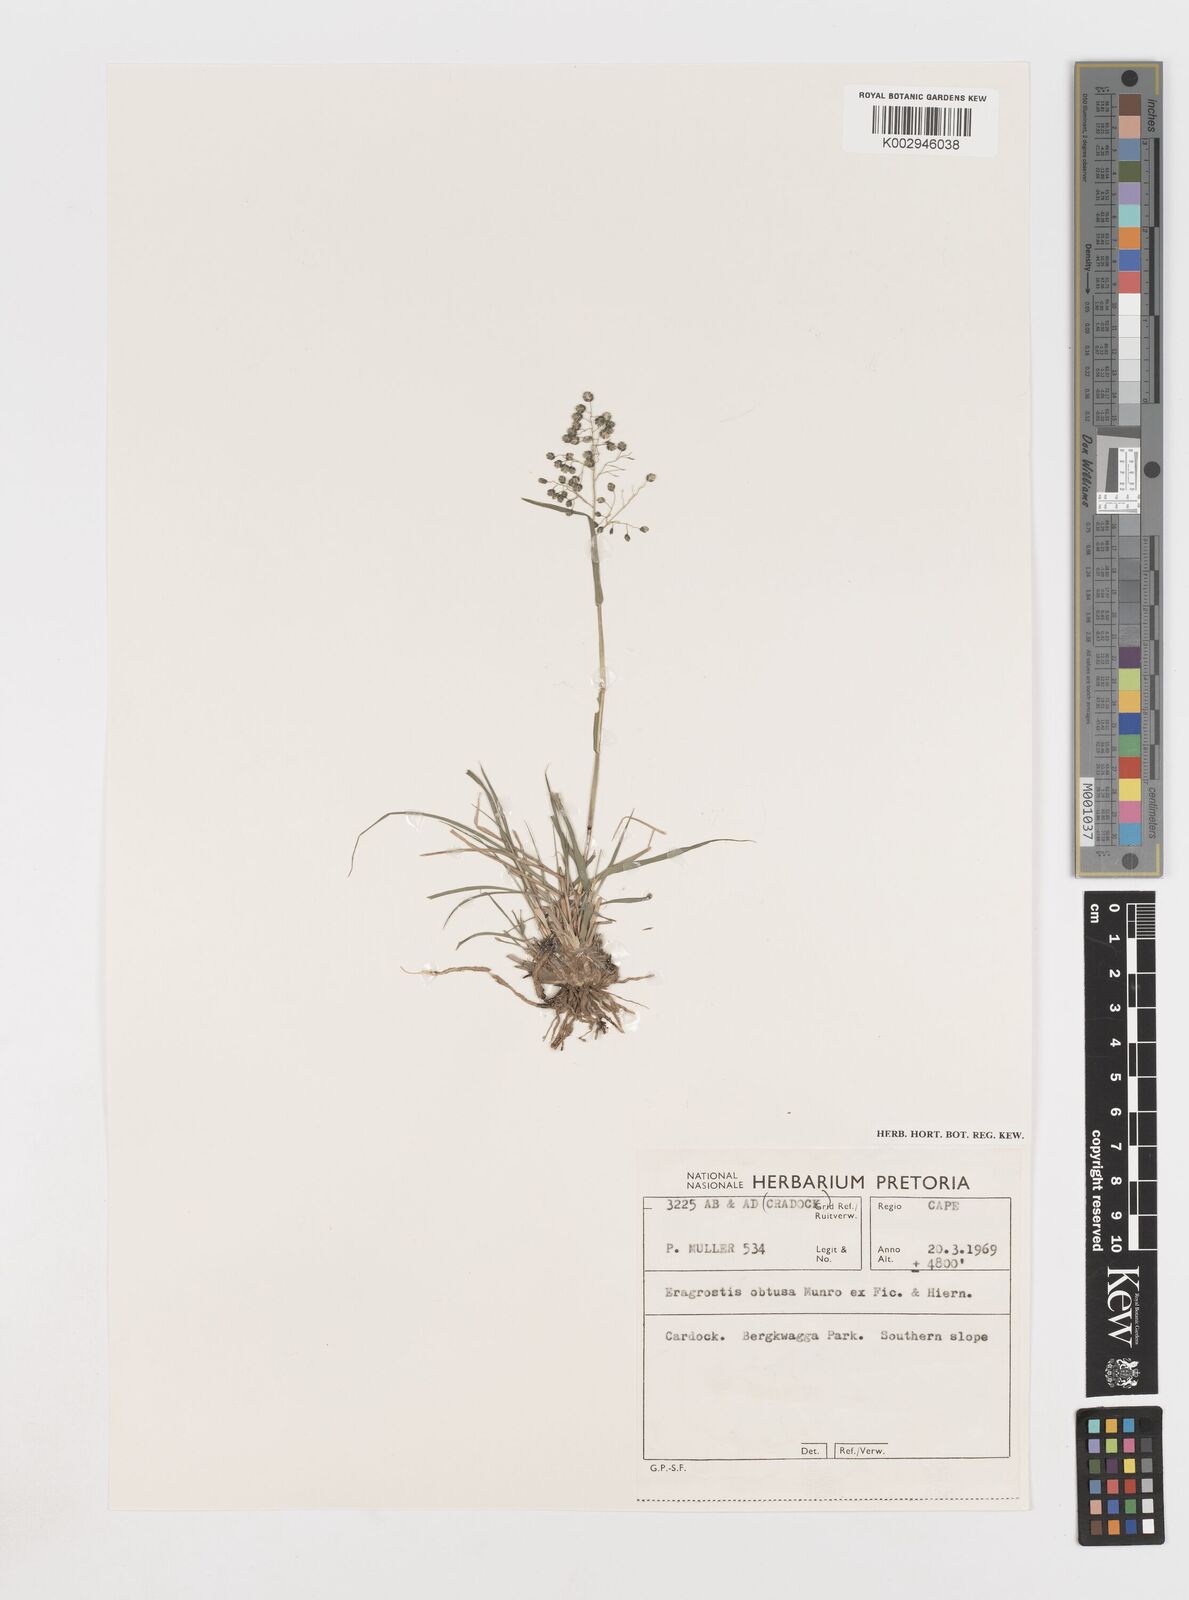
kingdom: Plantae
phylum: Tracheophyta
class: Liliopsida
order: Poales
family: Poaceae
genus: Eragrostis
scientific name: Eragrostis obtusa
